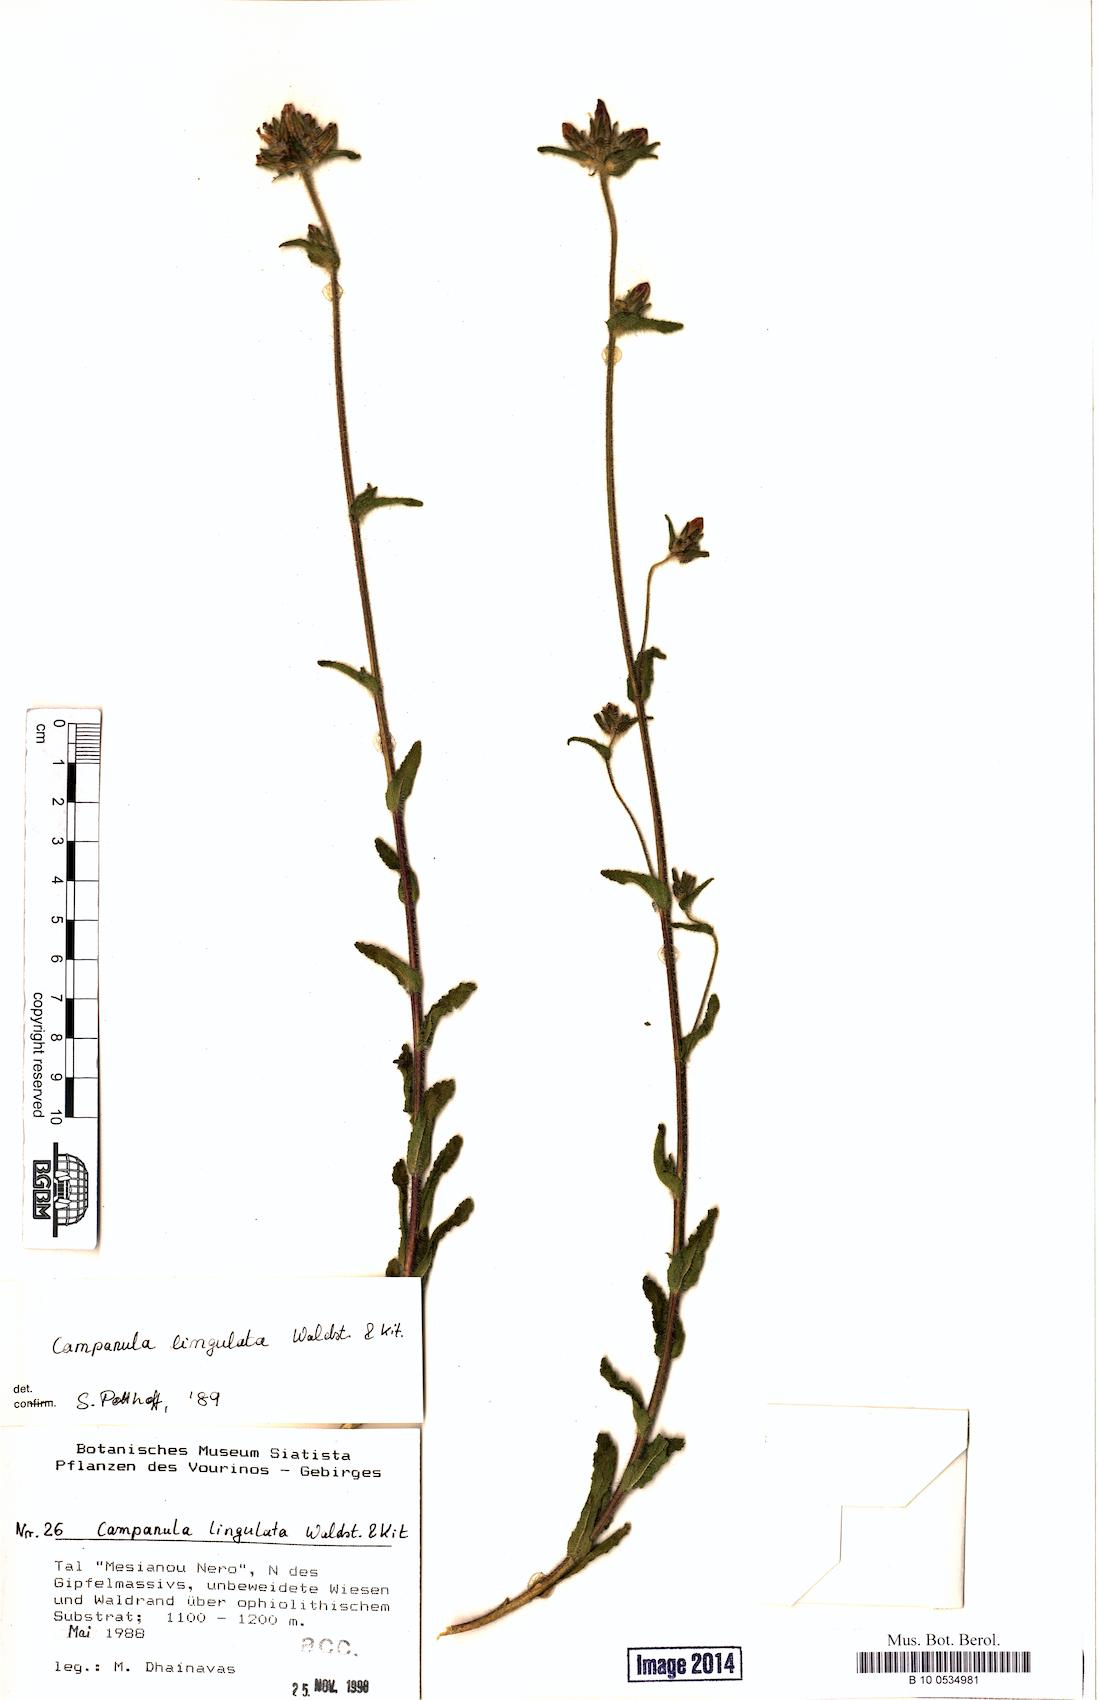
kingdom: Plantae
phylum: Tracheophyta
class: Magnoliopsida
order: Asterales
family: Campanulaceae
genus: Campanula
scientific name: Campanula lingulata
